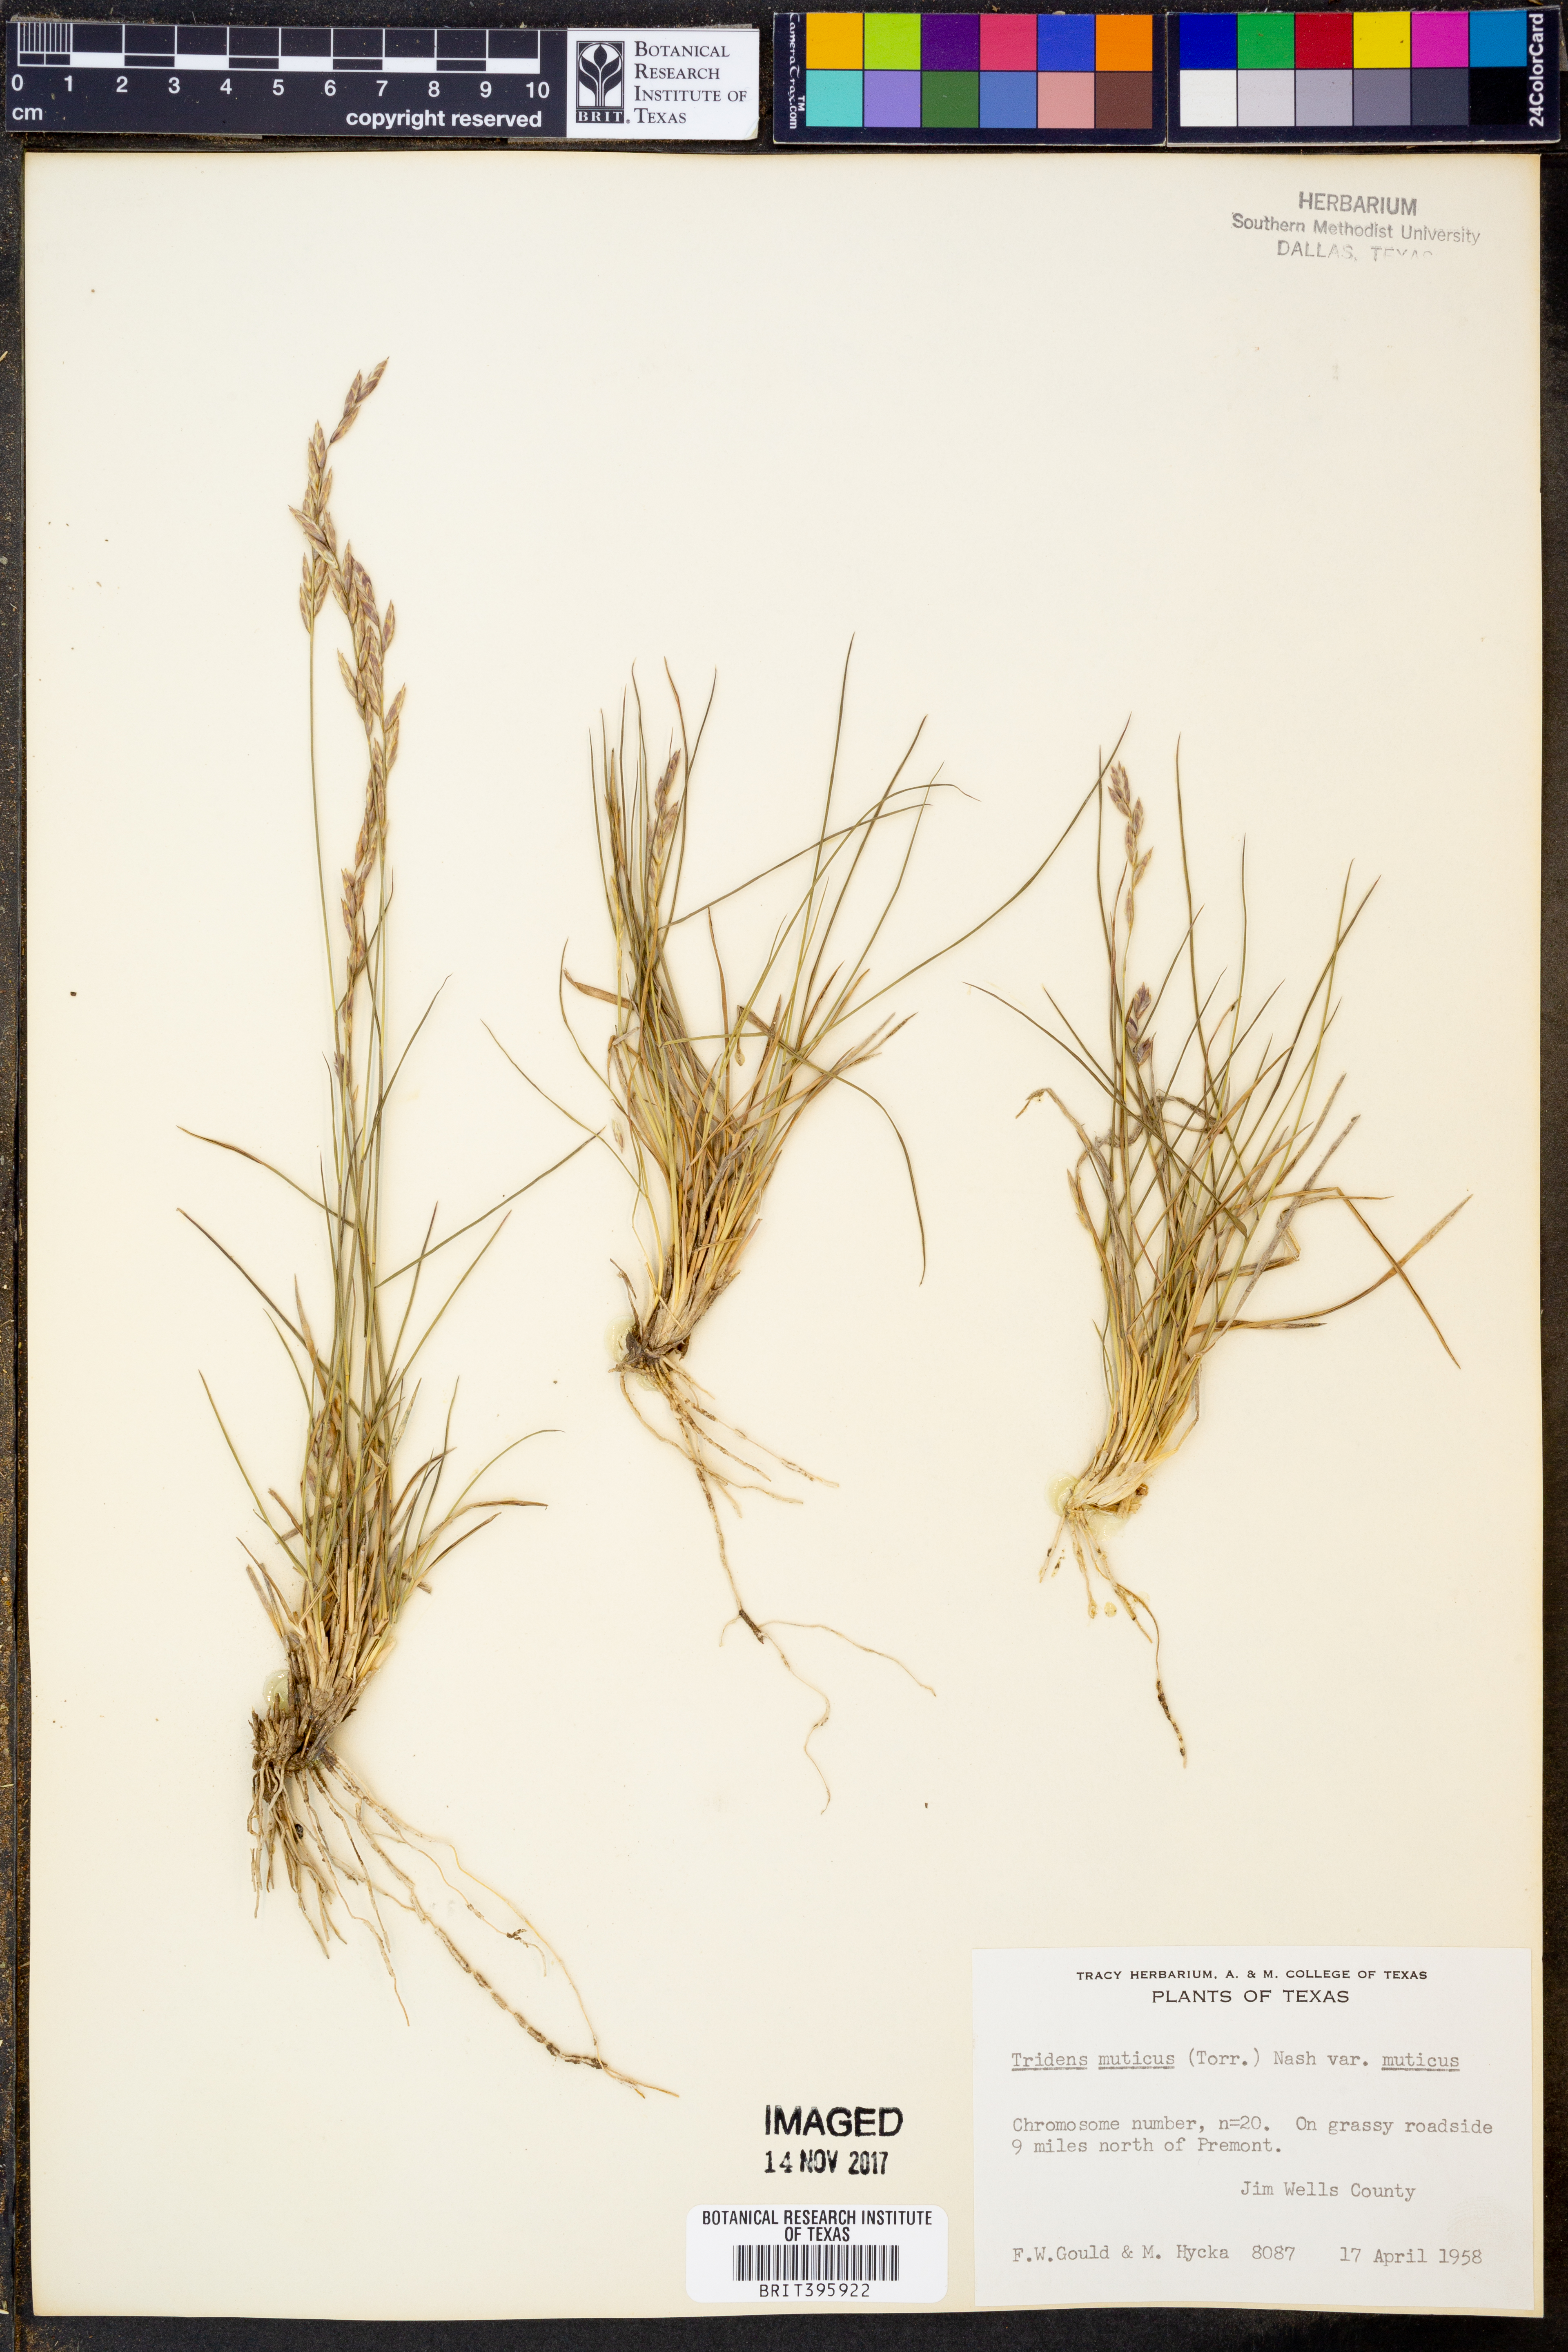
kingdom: Plantae
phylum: Tracheophyta
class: Liliopsida
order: Poales
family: Poaceae
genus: Tridentopsis
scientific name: Tridentopsis mutica
